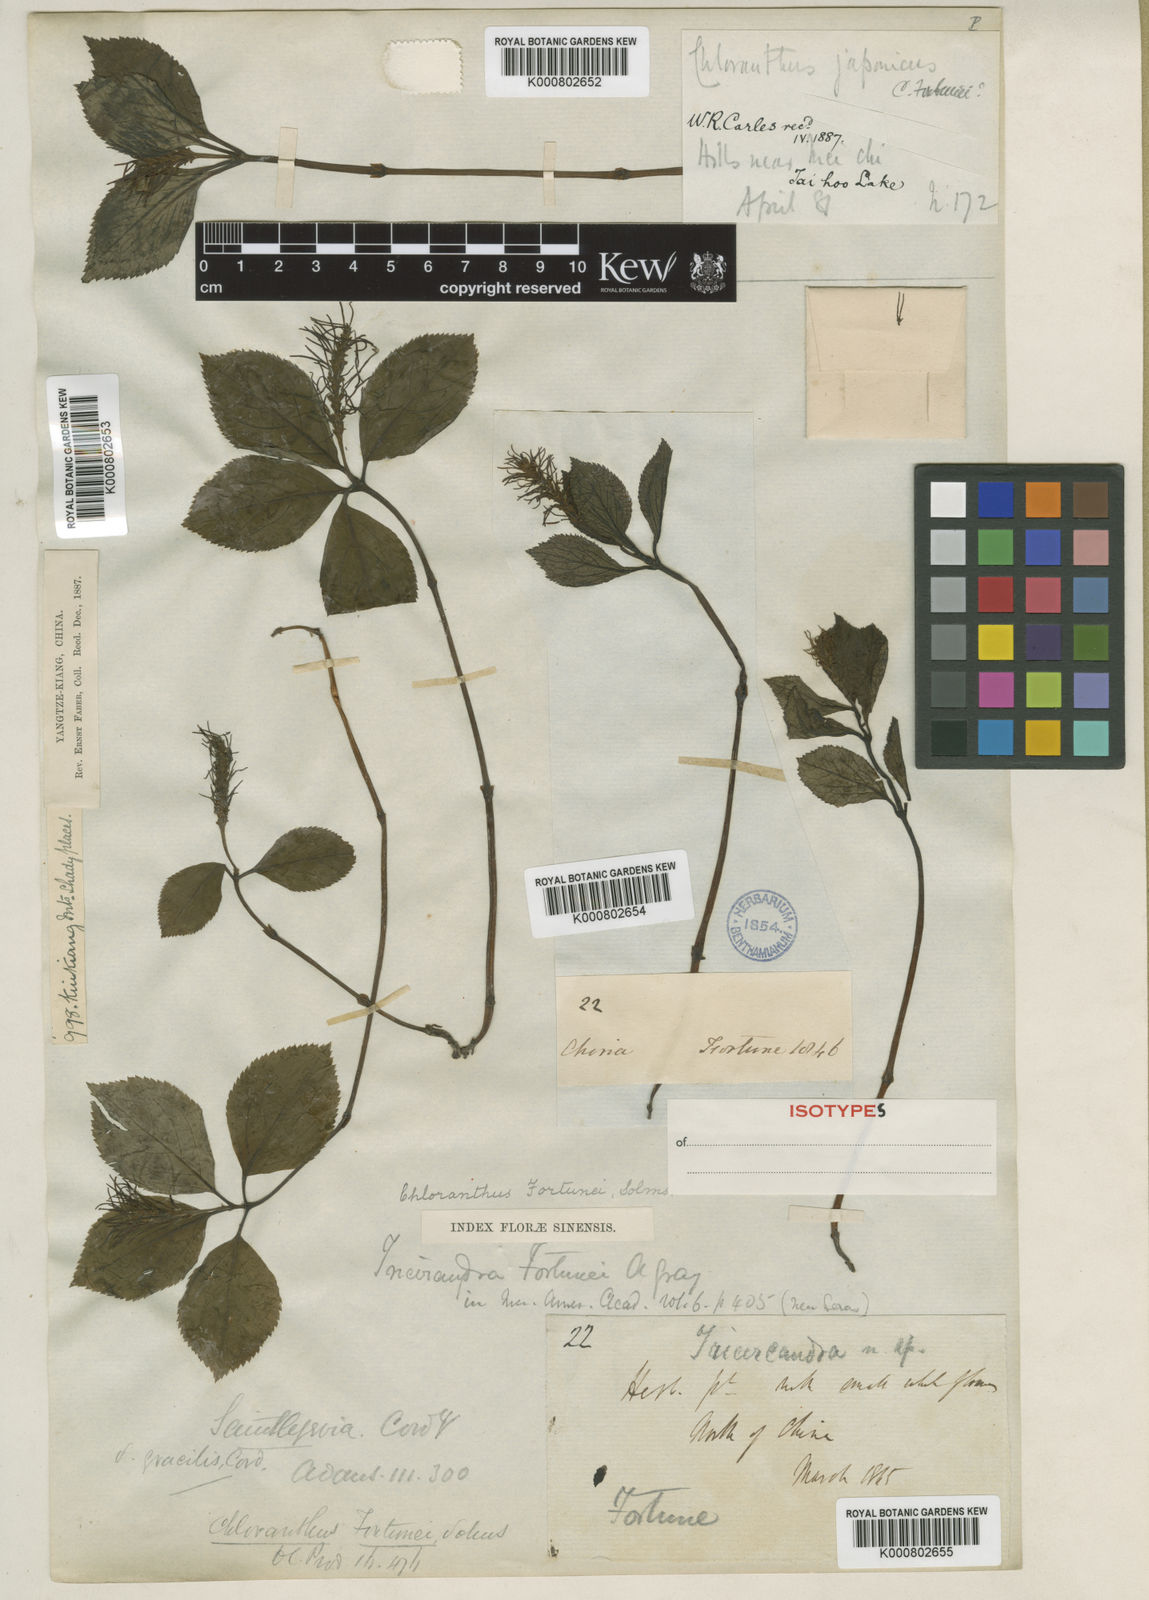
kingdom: Plantae
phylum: Tracheophyta
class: Magnoliopsida
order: Chloranthales
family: Chloranthaceae
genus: Chloranthus
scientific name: Chloranthus fortunei
